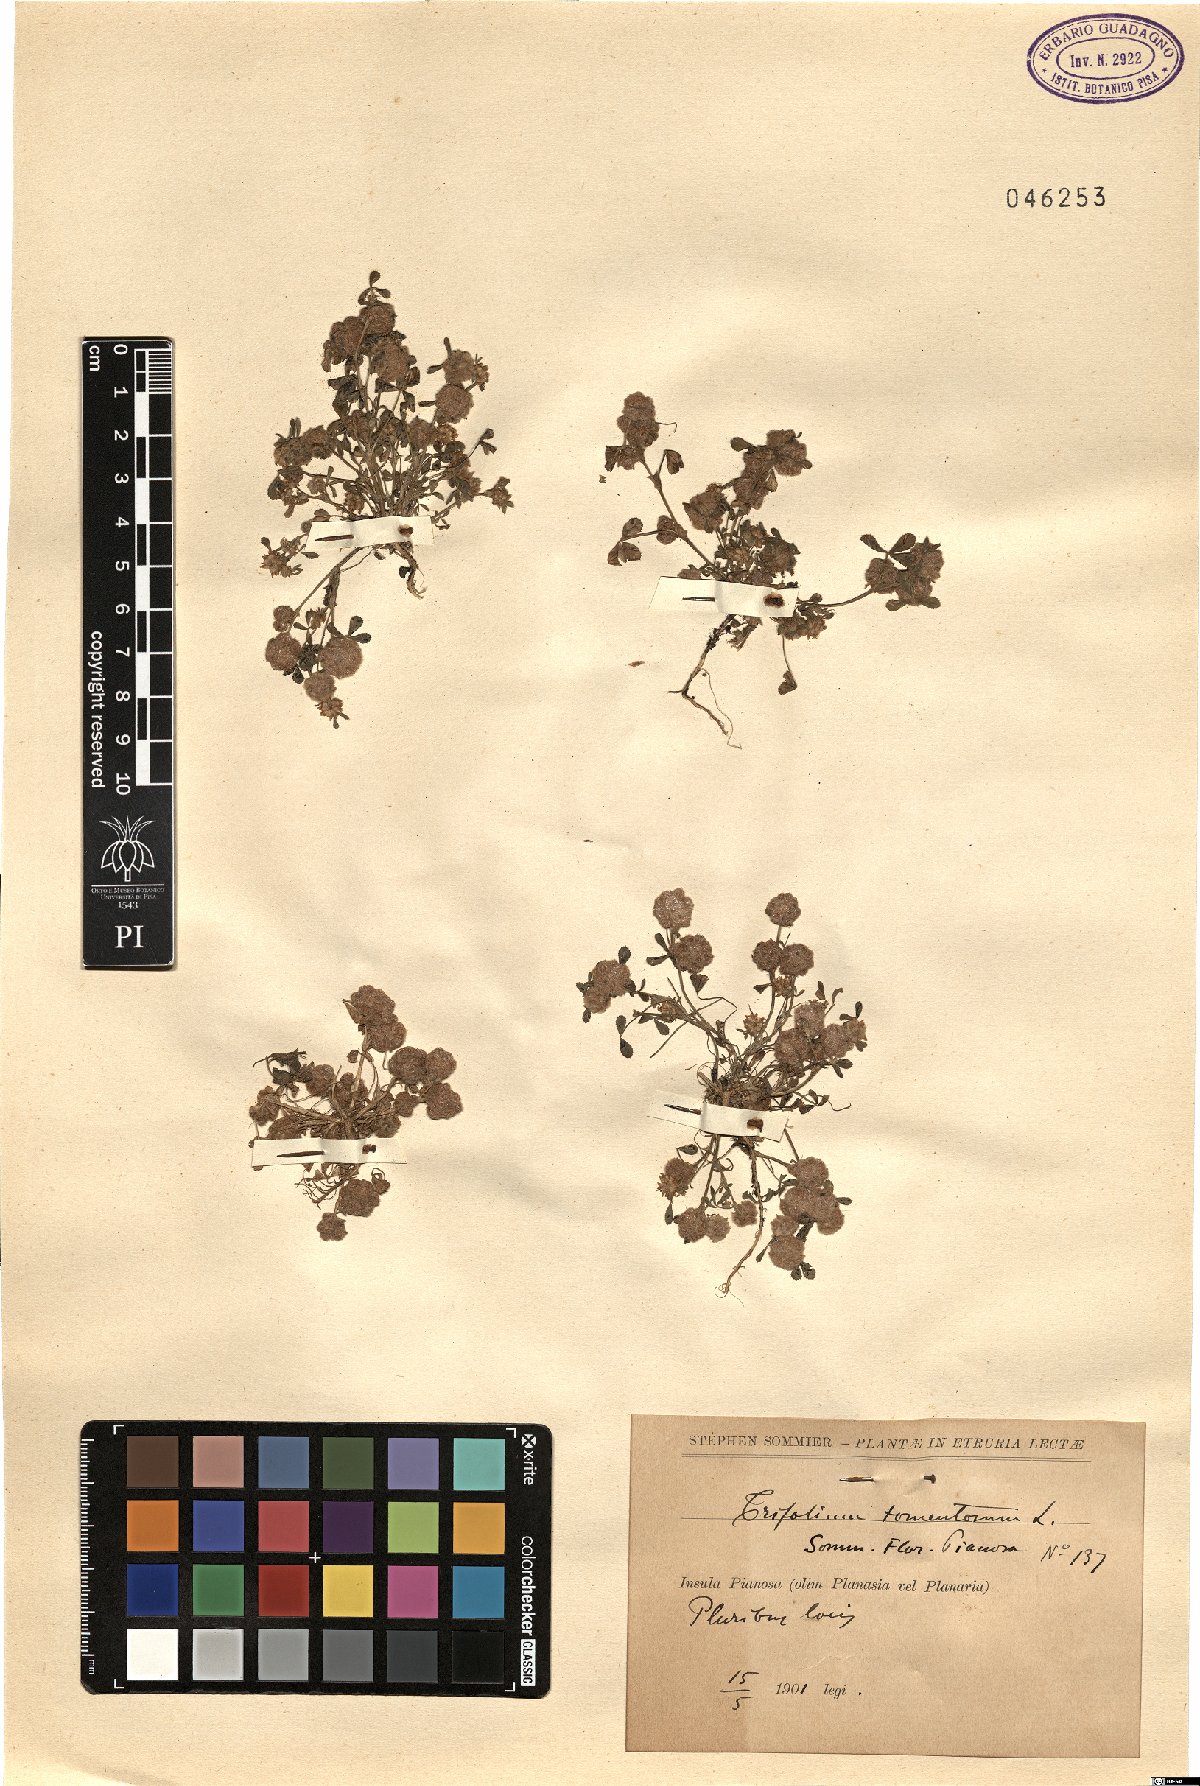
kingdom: Plantae
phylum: Tracheophyta
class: Magnoliopsida
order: Fabales
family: Fabaceae
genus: Trifolium
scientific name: Trifolium tomentosum
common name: Woolly clover
